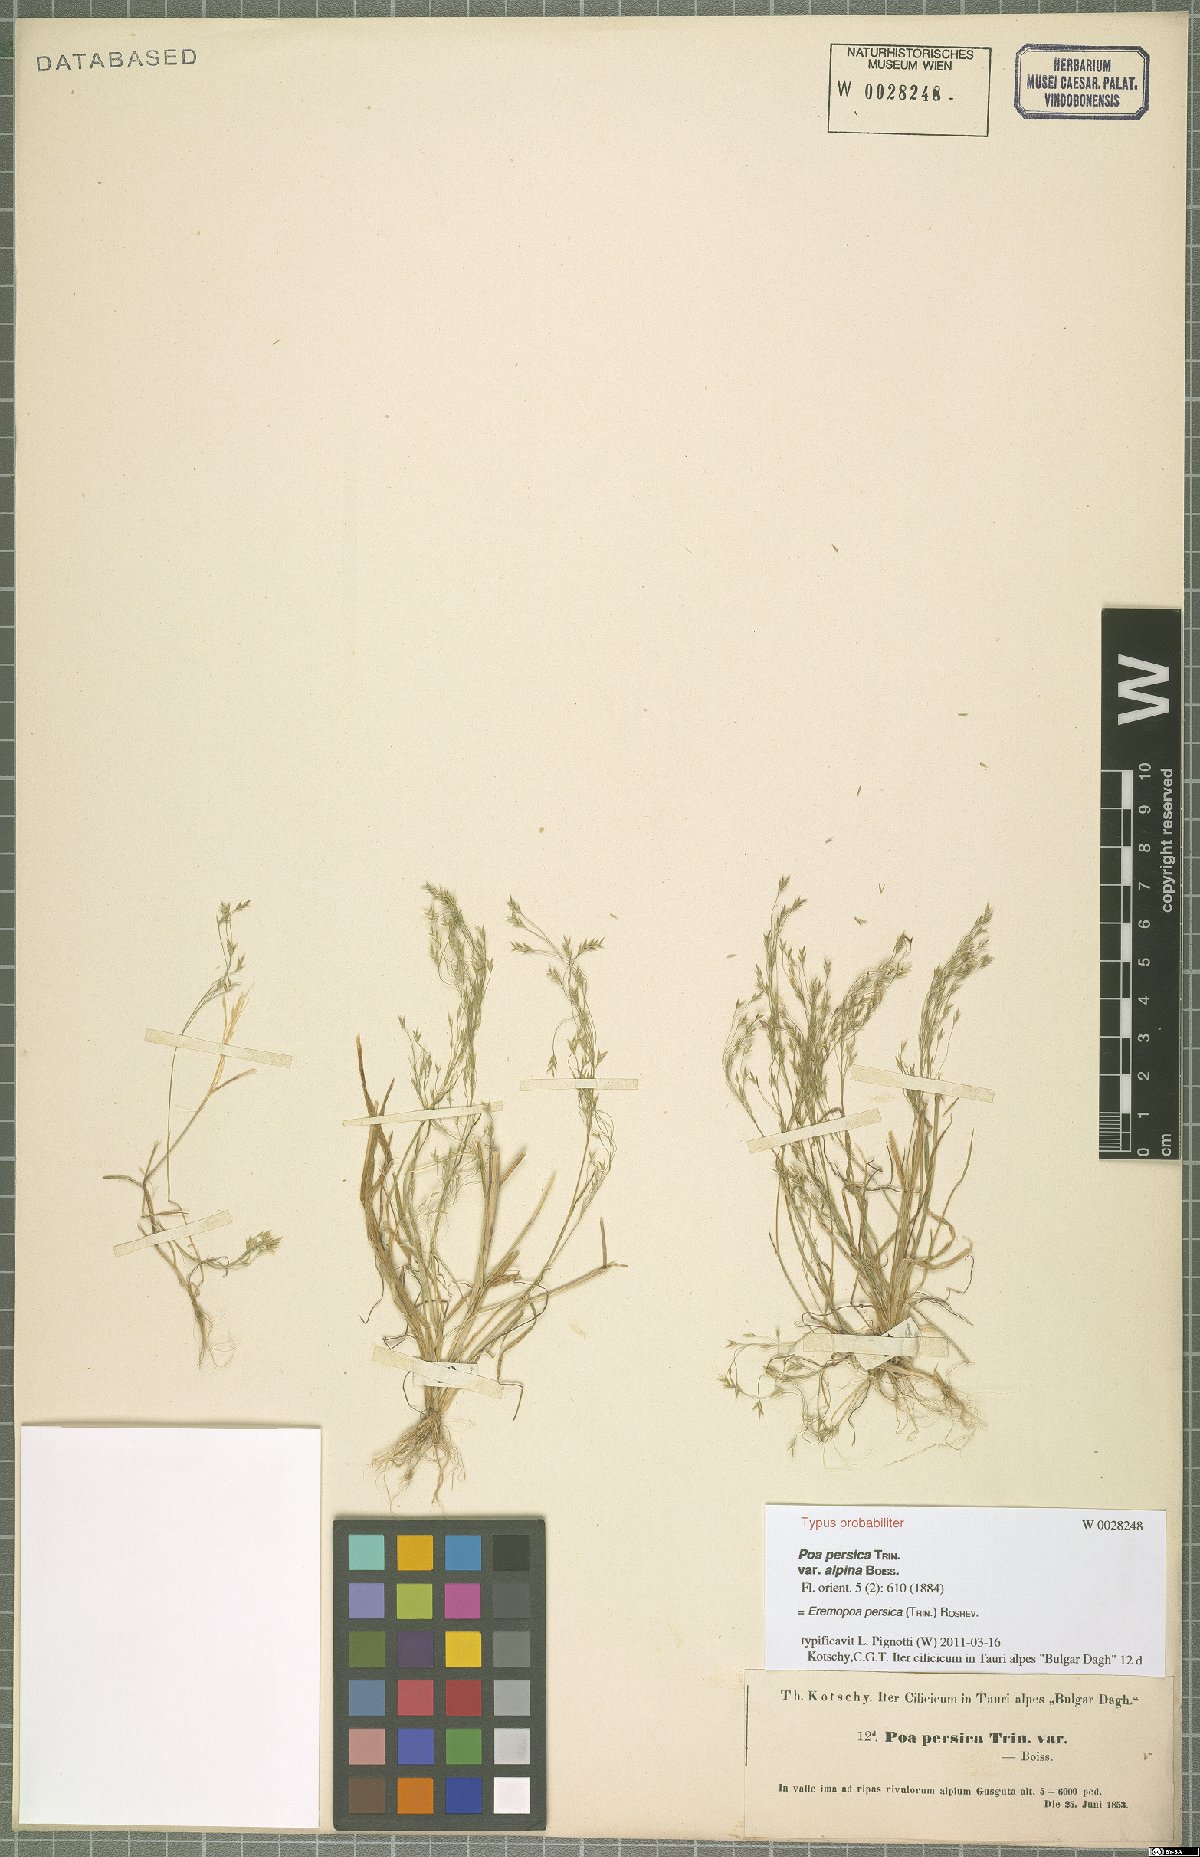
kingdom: Plantae
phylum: Tracheophyta
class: Liliopsida
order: Poales
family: Poaceae
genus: Poa
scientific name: Poa persica
